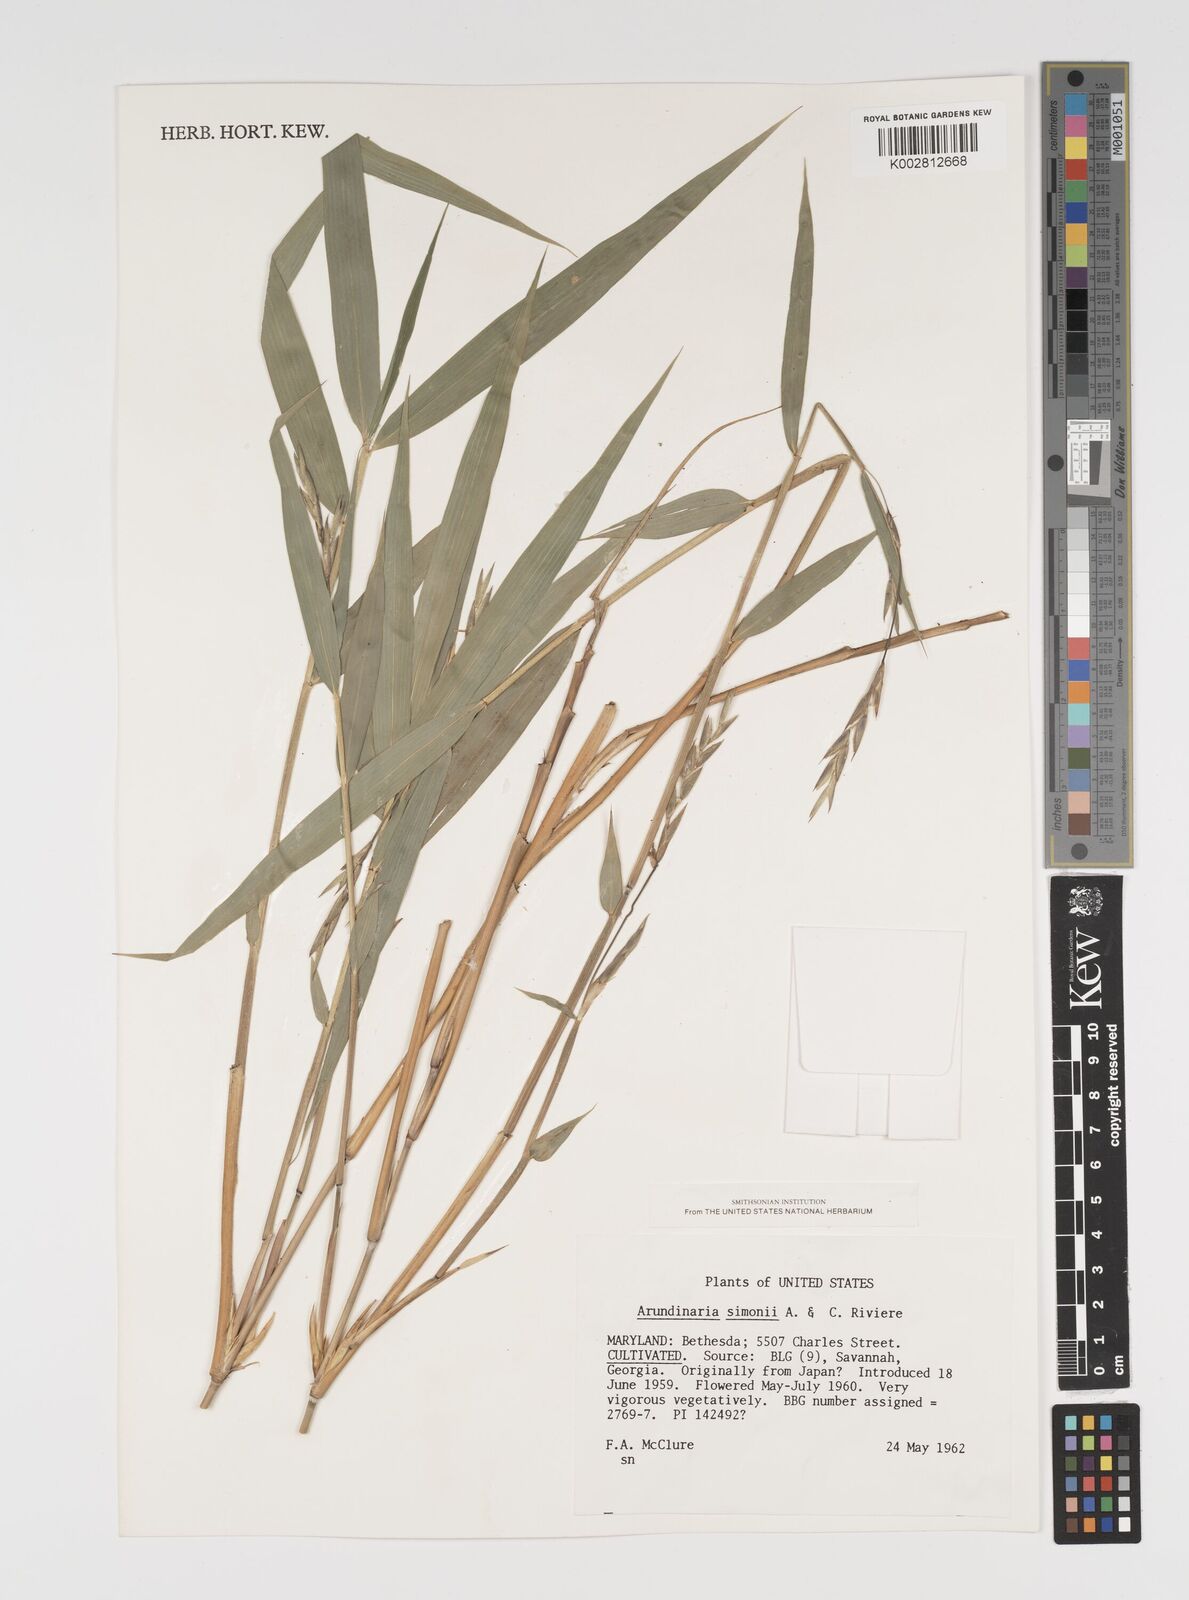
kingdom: Plantae
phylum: Tracheophyta
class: Liliopsida
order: Poales
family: Poaceae
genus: Pleioblastus
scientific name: Pleioblastus simonii
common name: Simon bamboo
